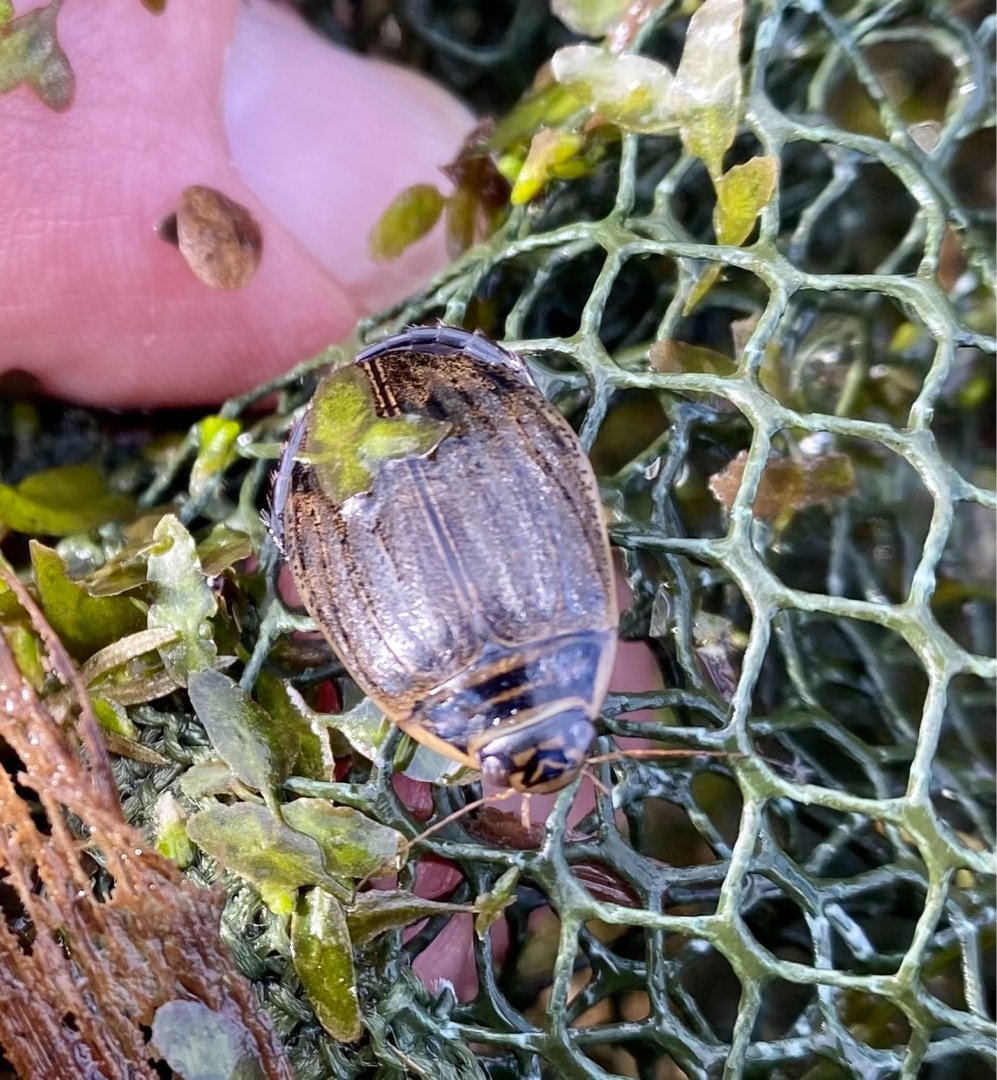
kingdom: Animalia
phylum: Arthropoda
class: Insecta
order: Coleoptera
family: Dytiscidae
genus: Acilius
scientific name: Acilius sulcatus
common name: Stribet skivevandkalv
